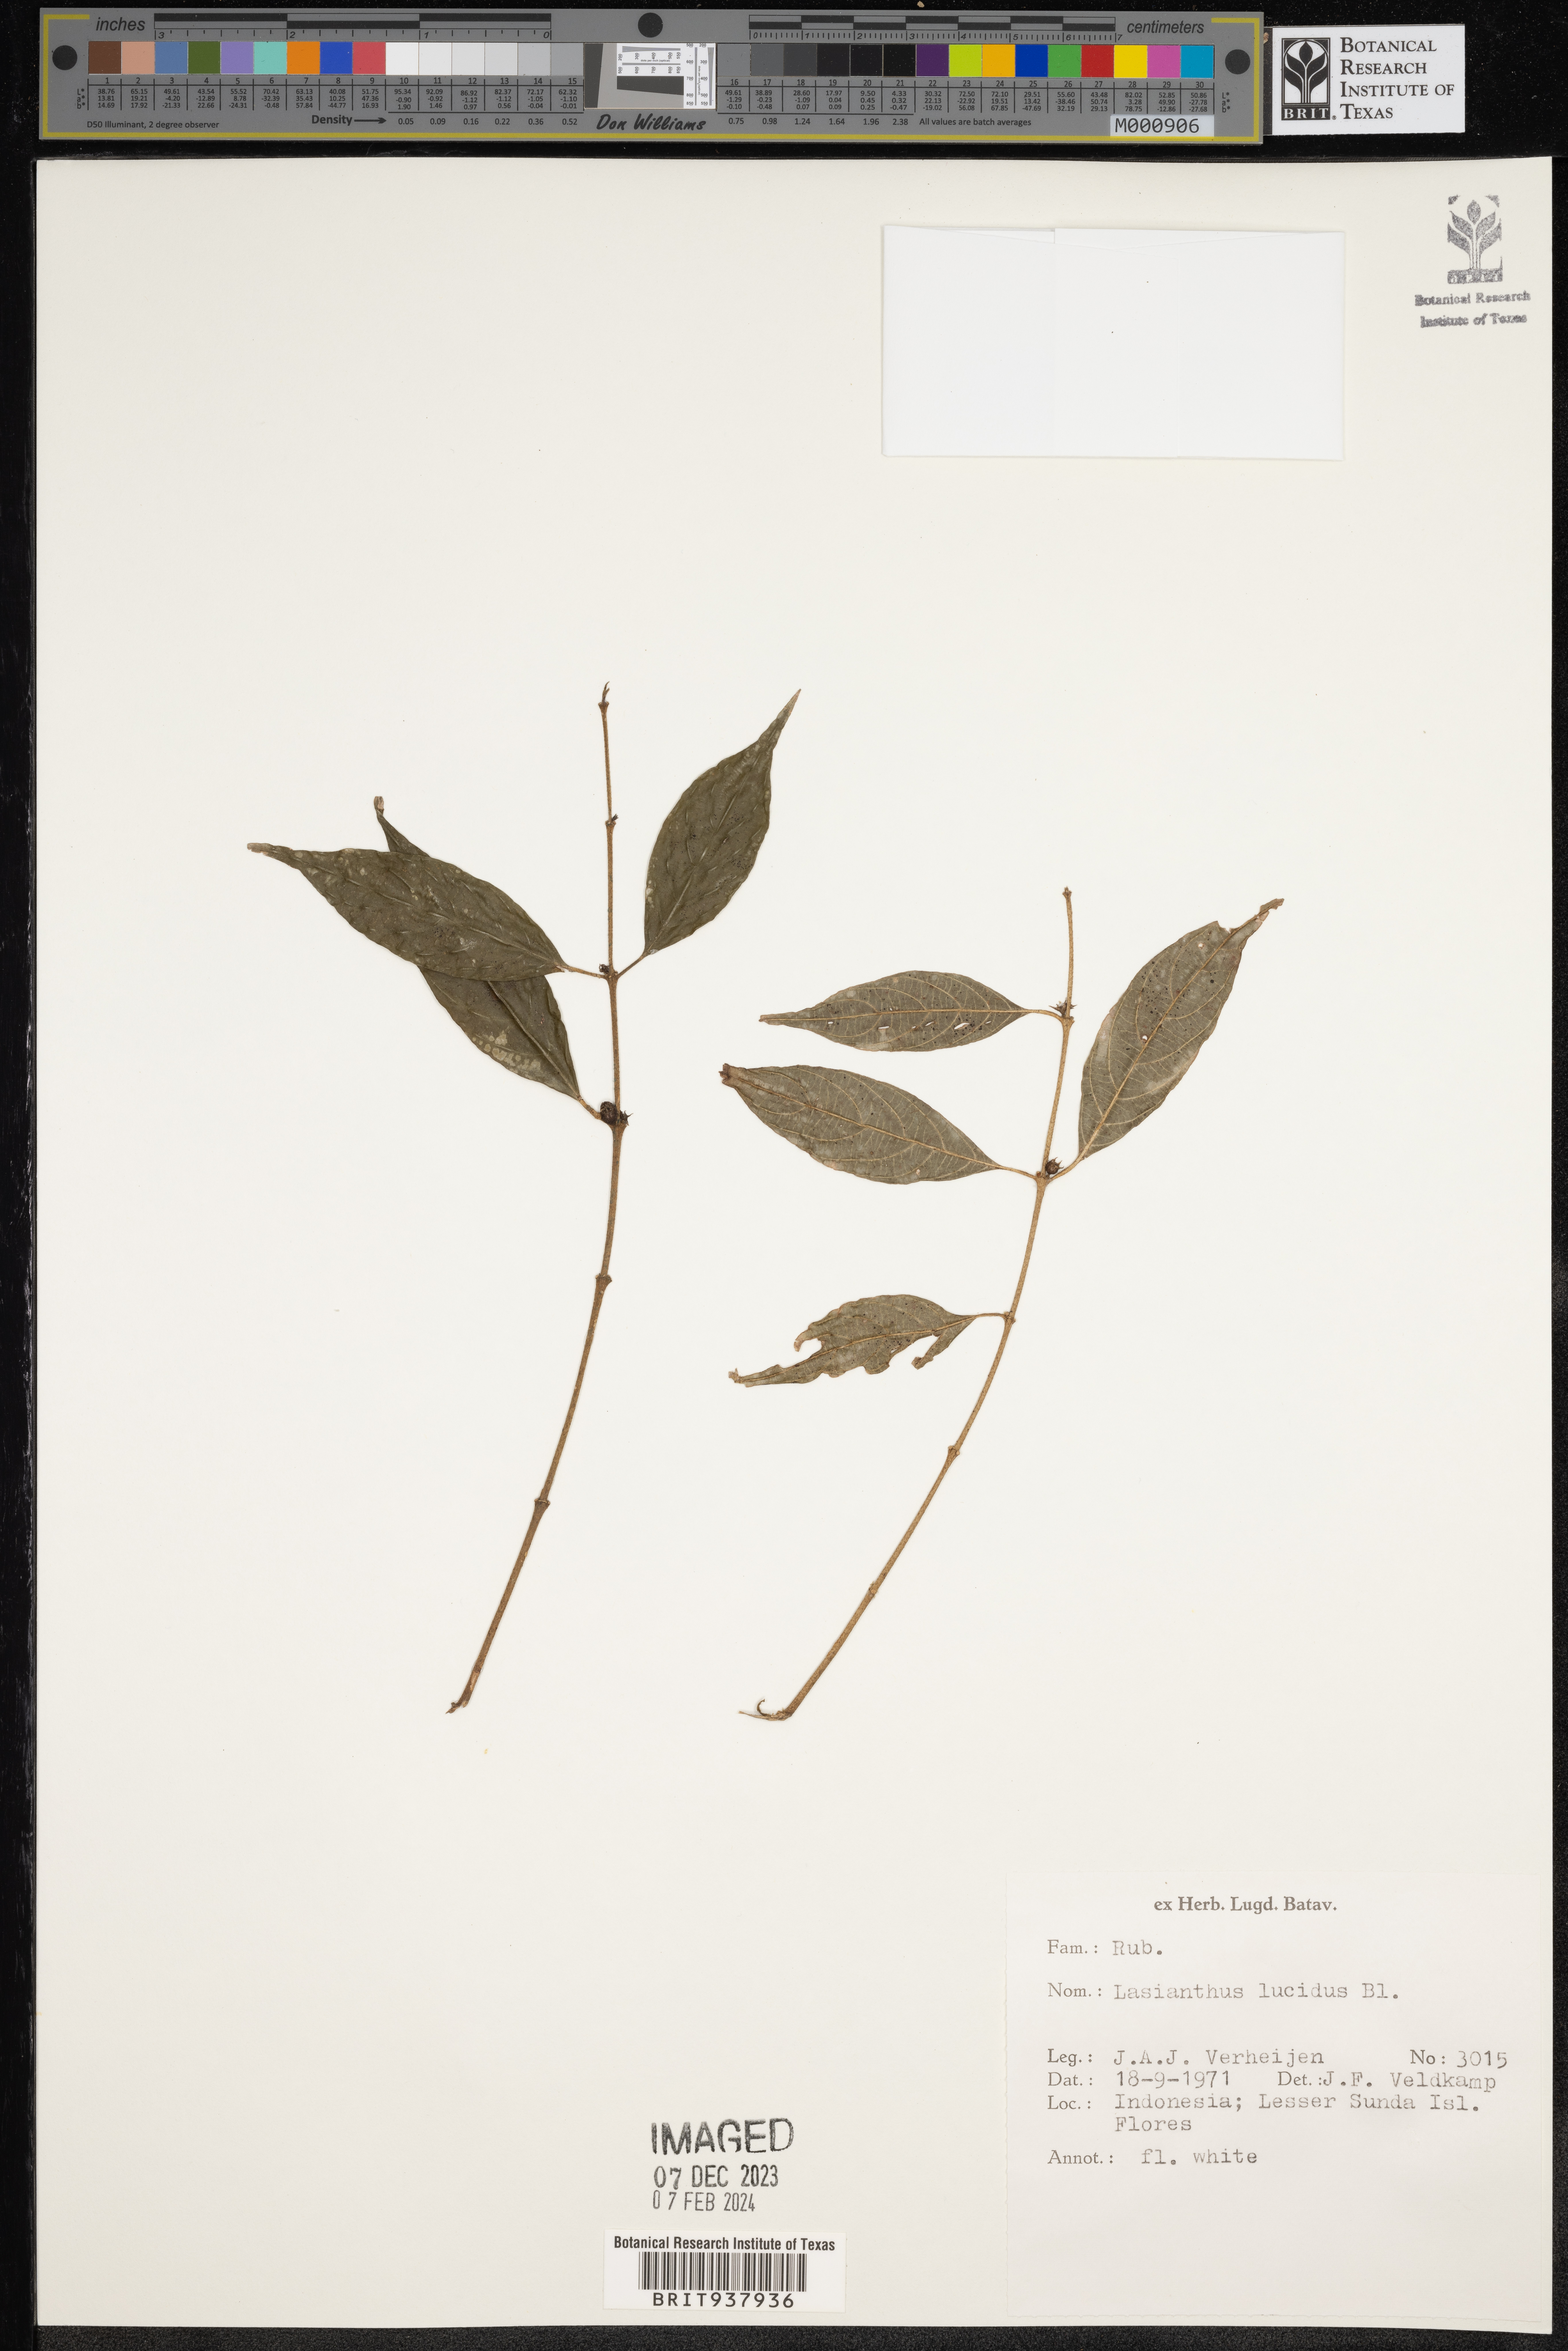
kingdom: Plantae
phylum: Tracheophyta
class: Magnoliopsida
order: Gentianales
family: Rubiaceae
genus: Lasianthus
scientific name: Lasianthus
